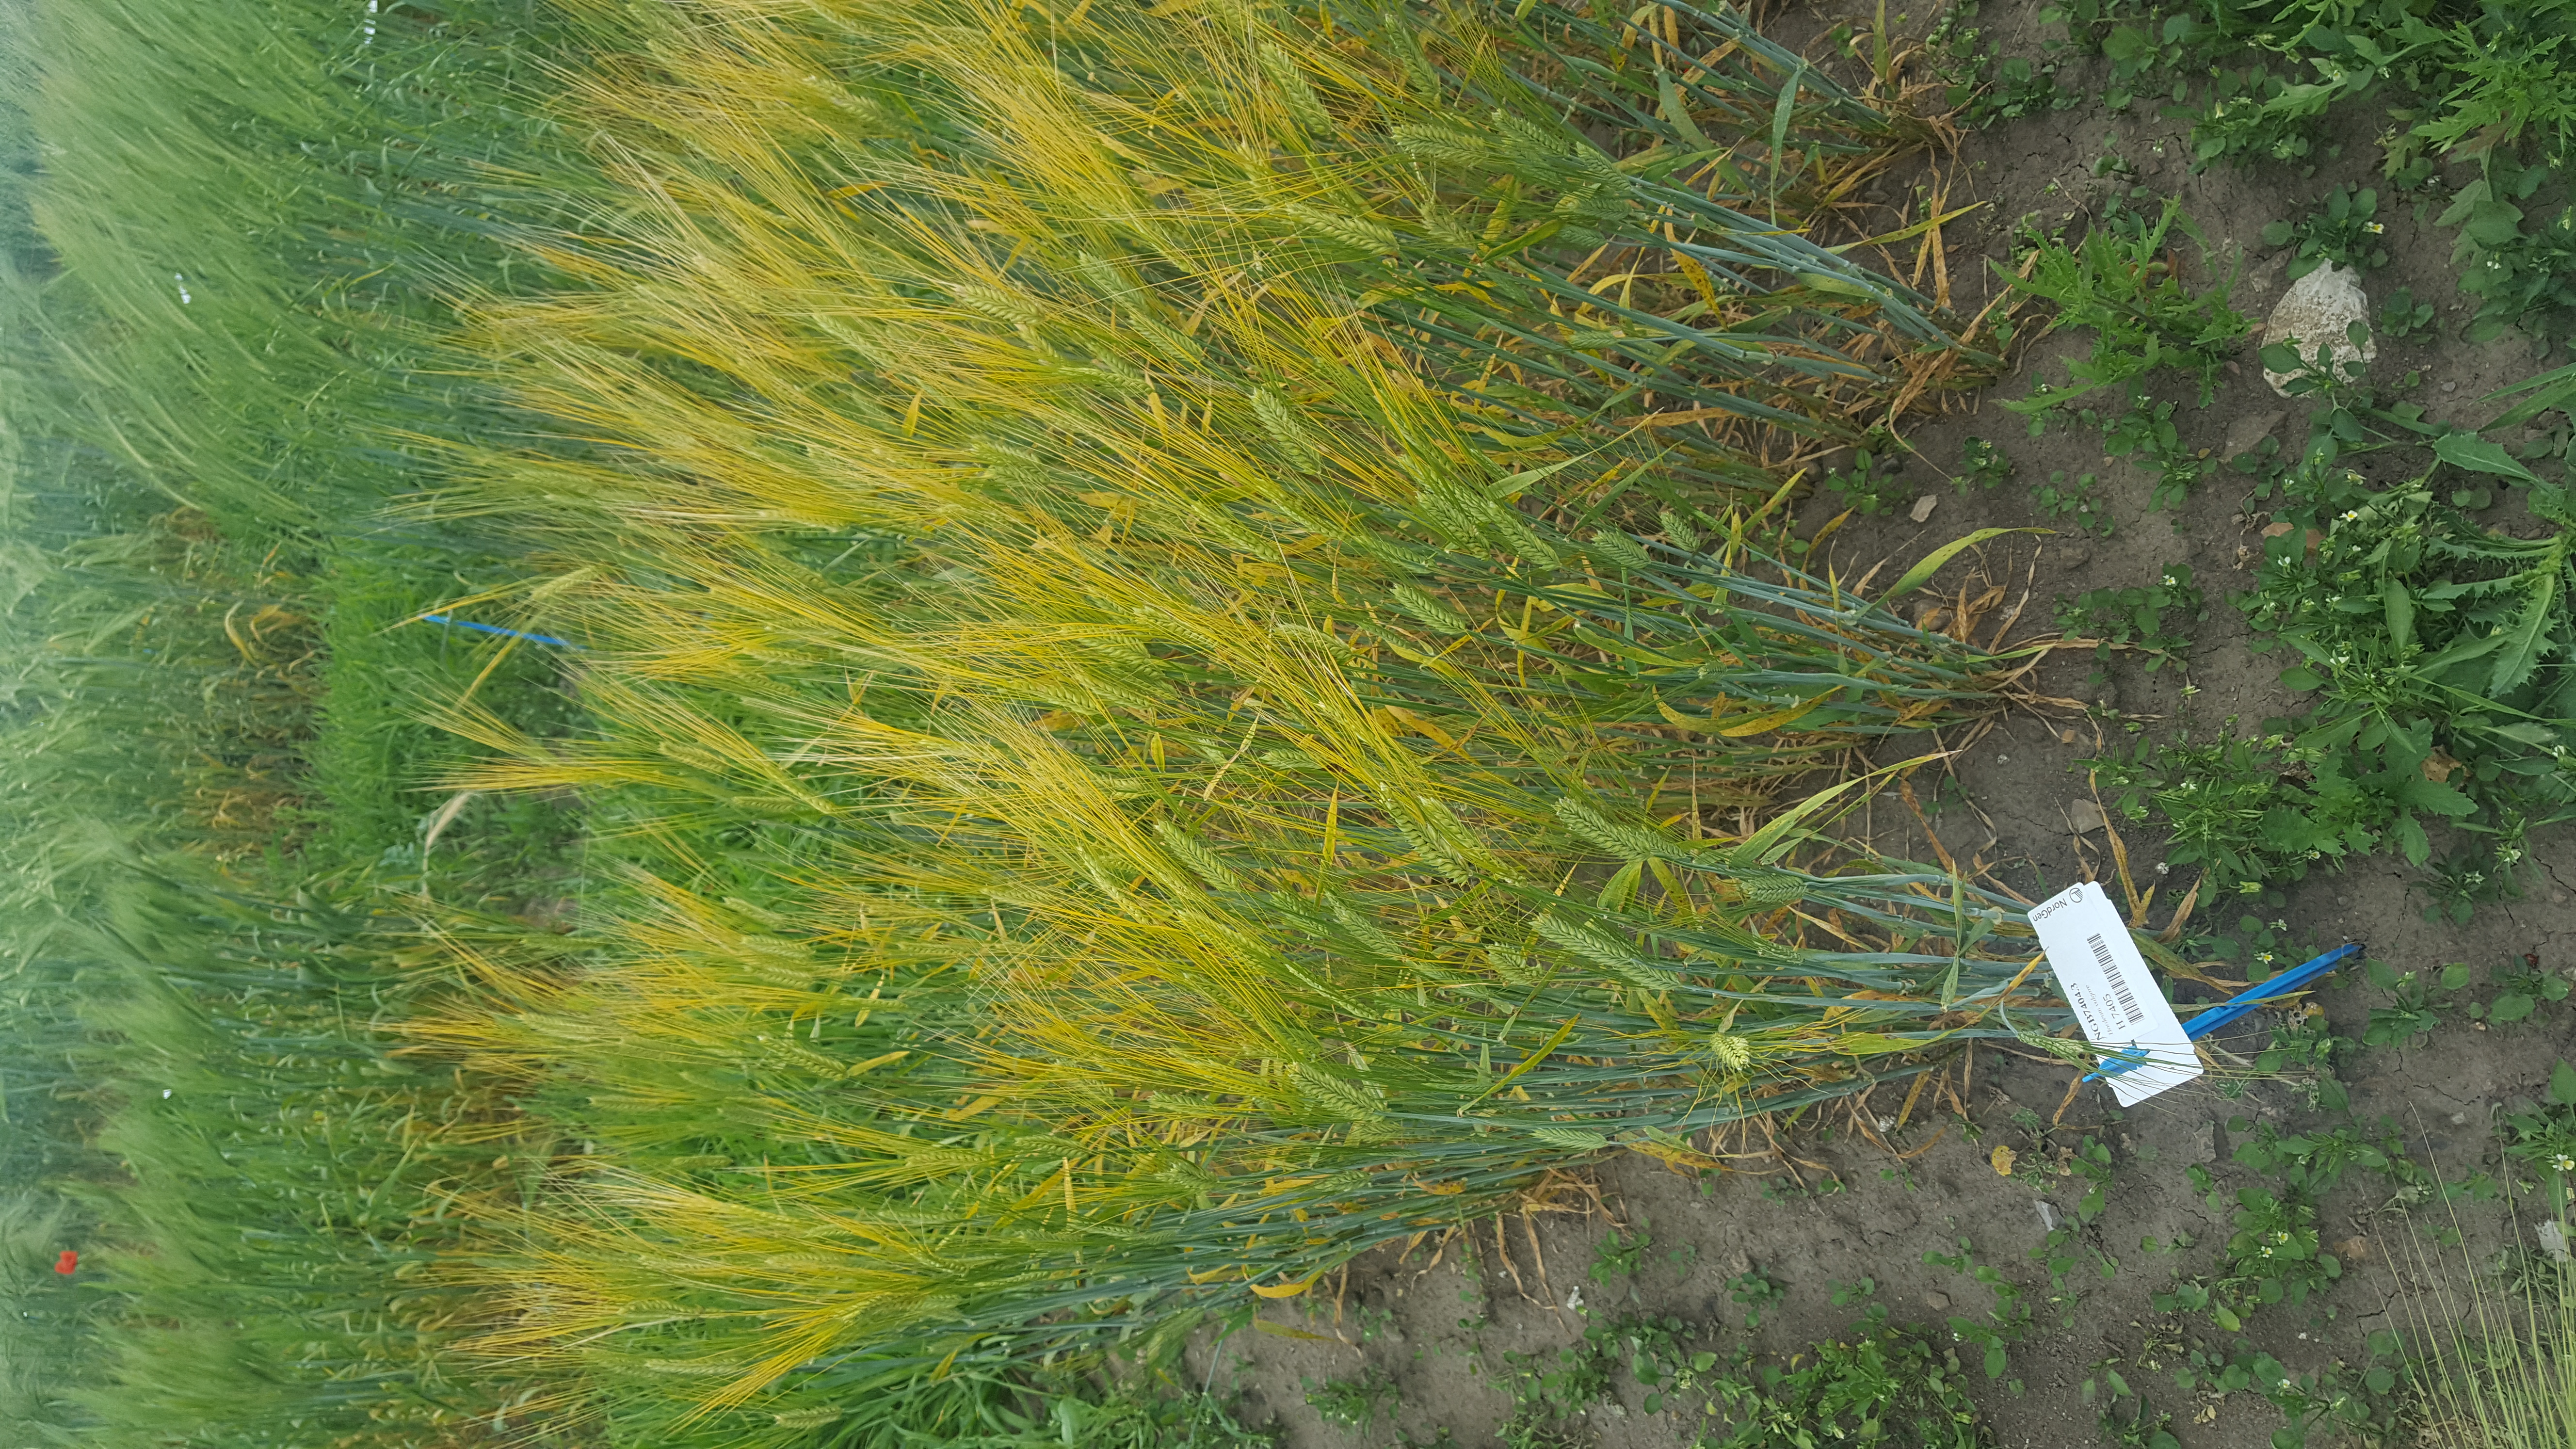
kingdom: Plantae
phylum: Tracheophyta
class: Liliopsida
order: Poales
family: Poaceae
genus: Hordeum
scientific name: Hordeum vulgare
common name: Common barley
